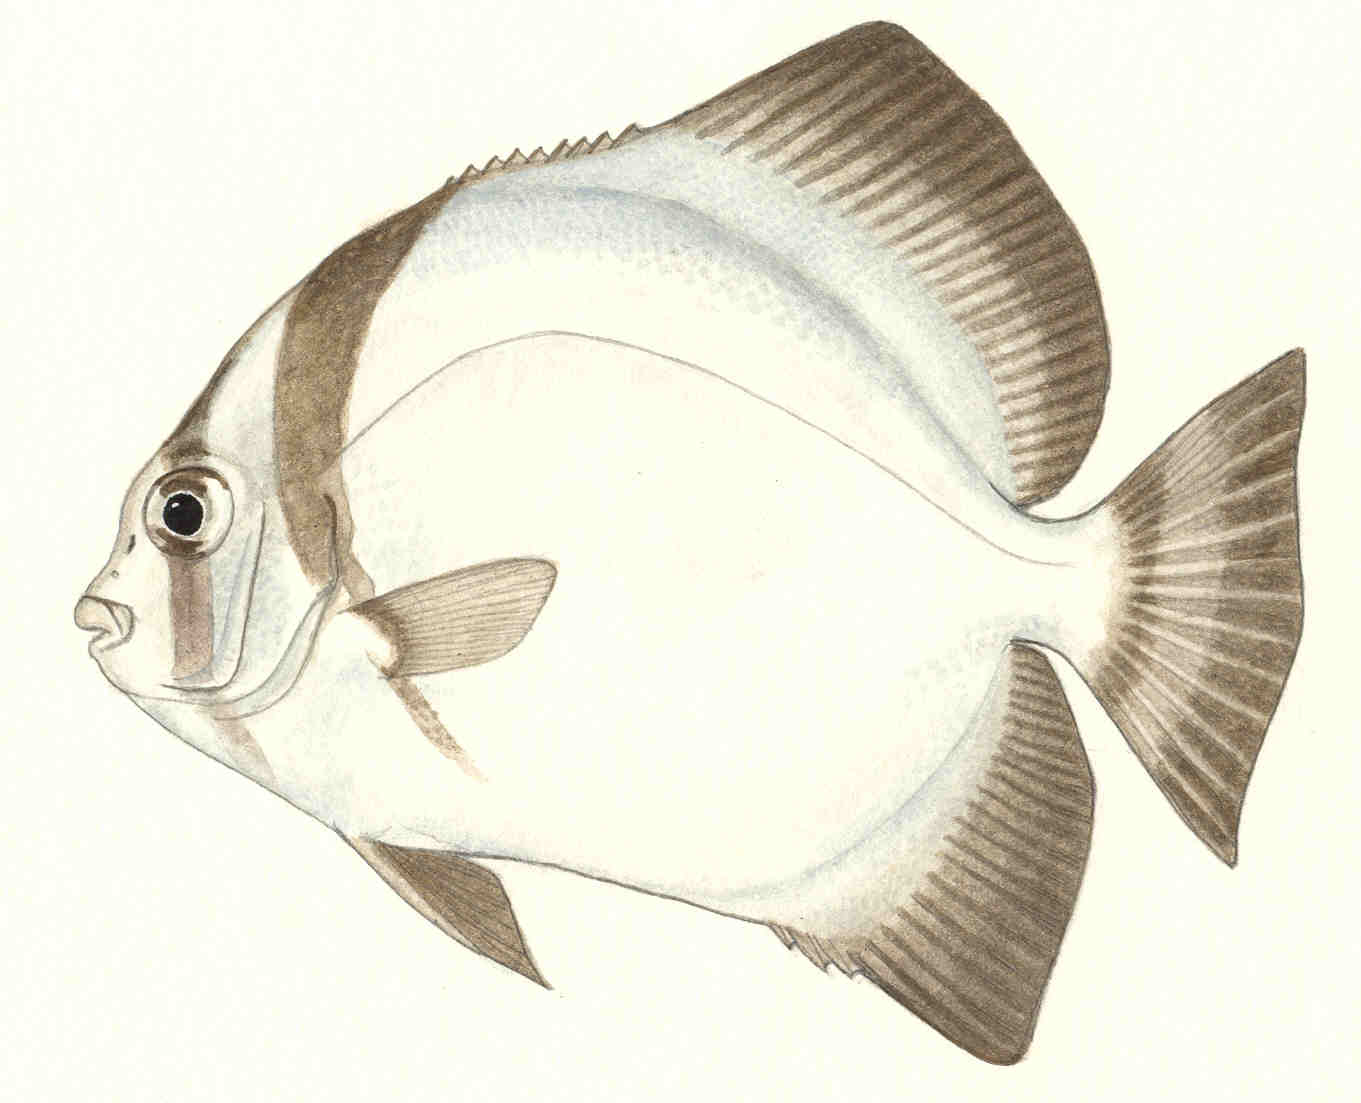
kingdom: Animalia
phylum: Chordata
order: Perciformes
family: Ephippidae
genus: Zabidius
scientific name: Zabidius novemaculeatus
